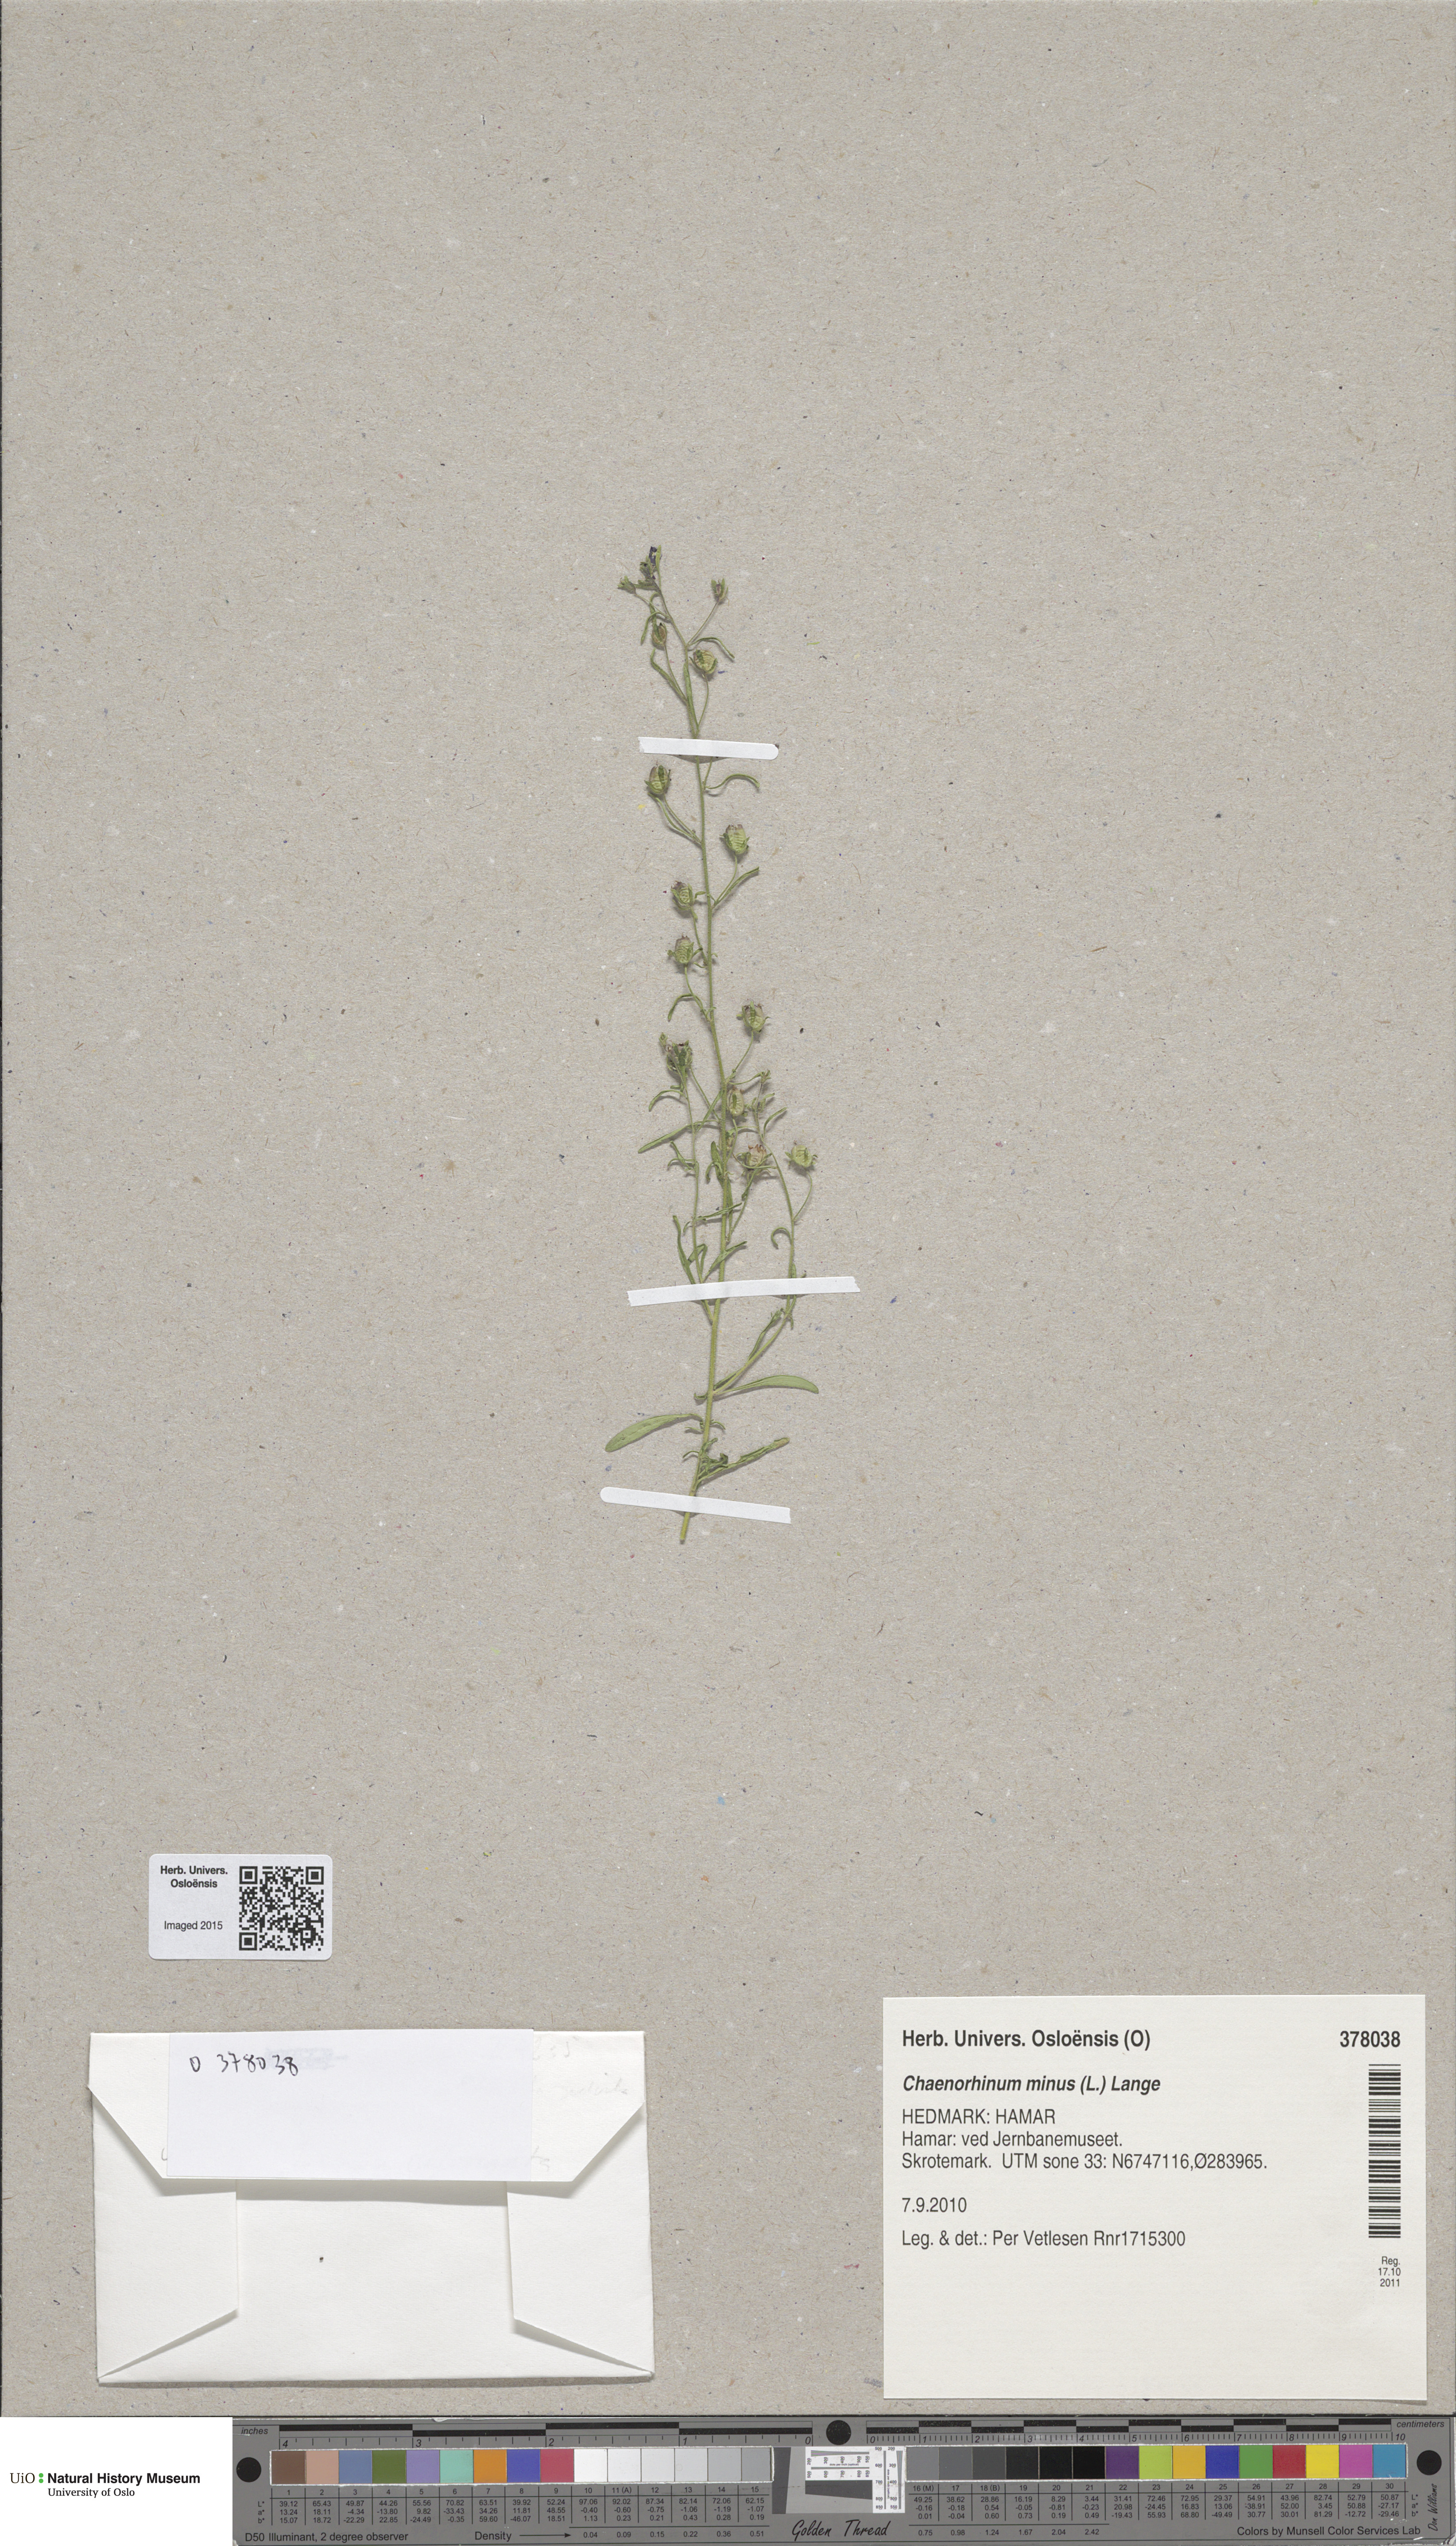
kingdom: Plantae
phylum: Tracheophyta
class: Magnoliopsida
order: Lamiales
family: Plantaginaceae
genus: Chaenorhinum
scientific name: Chaenorhinum minus
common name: Dwarf snapdragon
